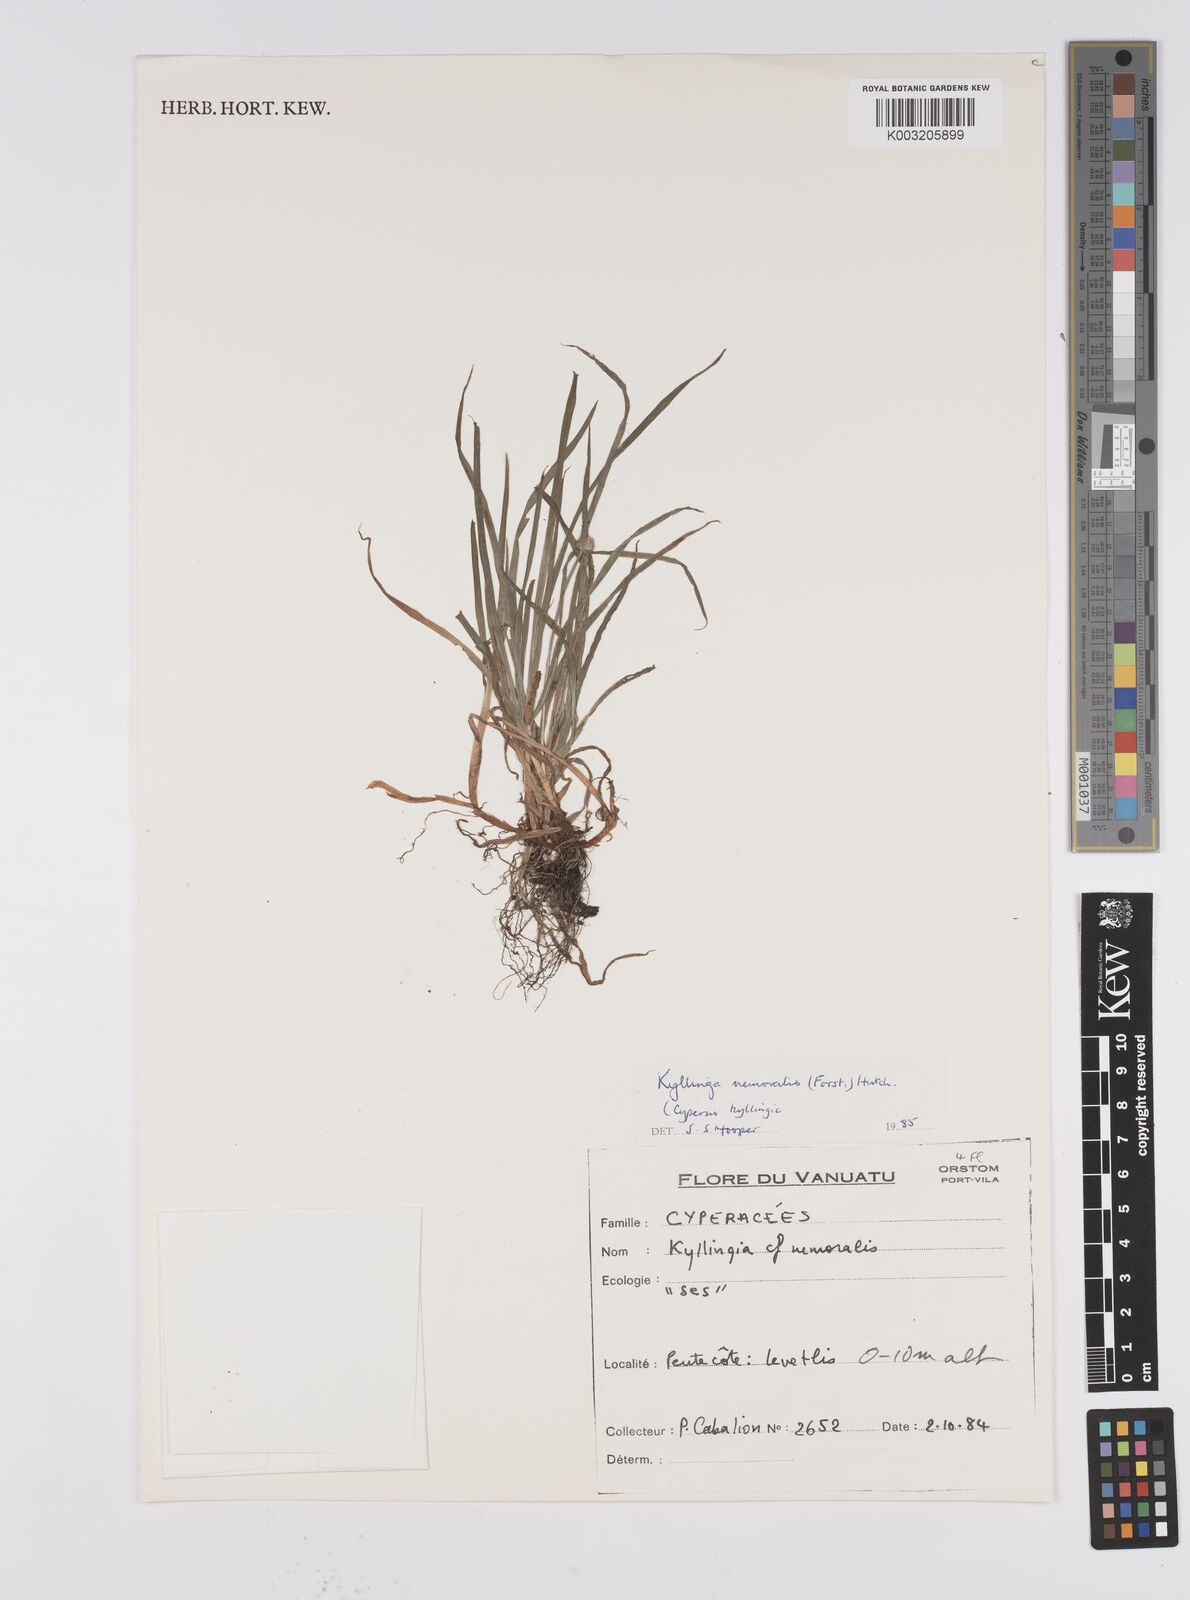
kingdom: Plantae
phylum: Tracheophyta
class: Liliopsida
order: Poales
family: Cyperaceae
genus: Cyperus
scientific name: Cyperus nemoralis
